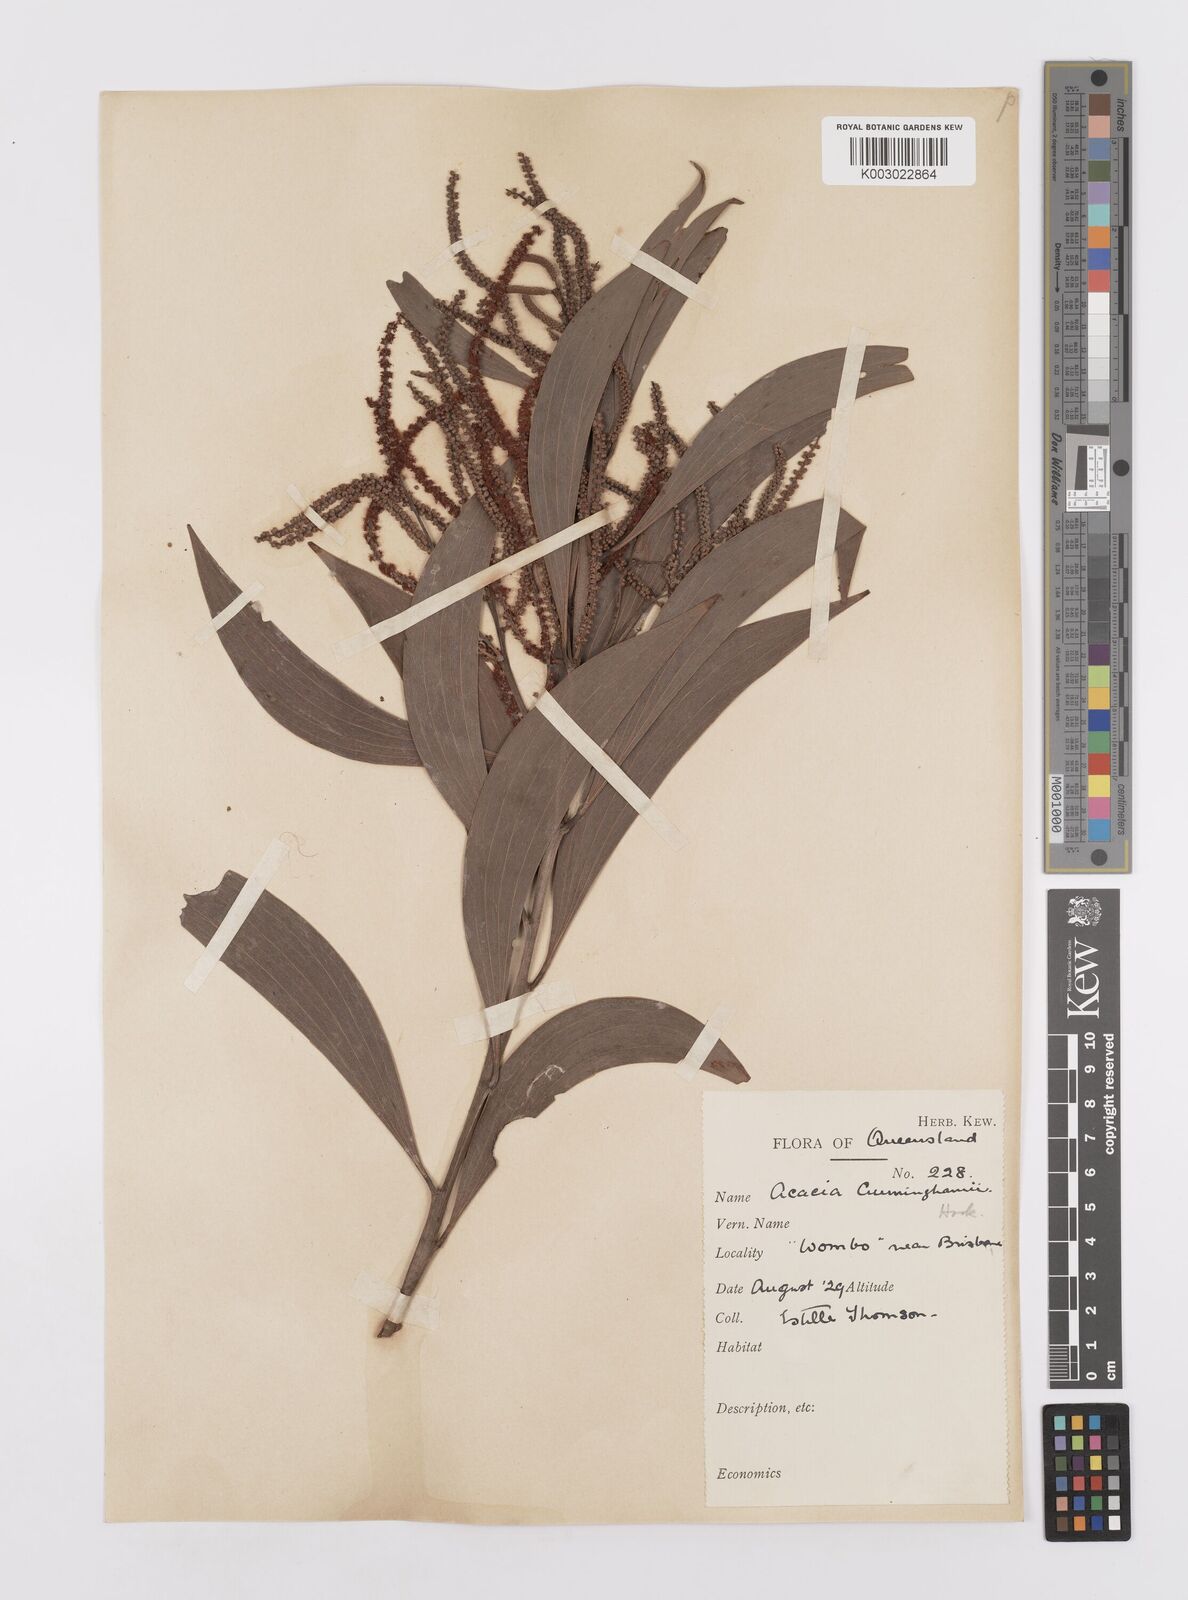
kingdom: Plantae
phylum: Tracheophyta
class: Magnoliopsida
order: Fabales
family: Fabaceae
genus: Acacia
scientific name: Acacia longispicata
